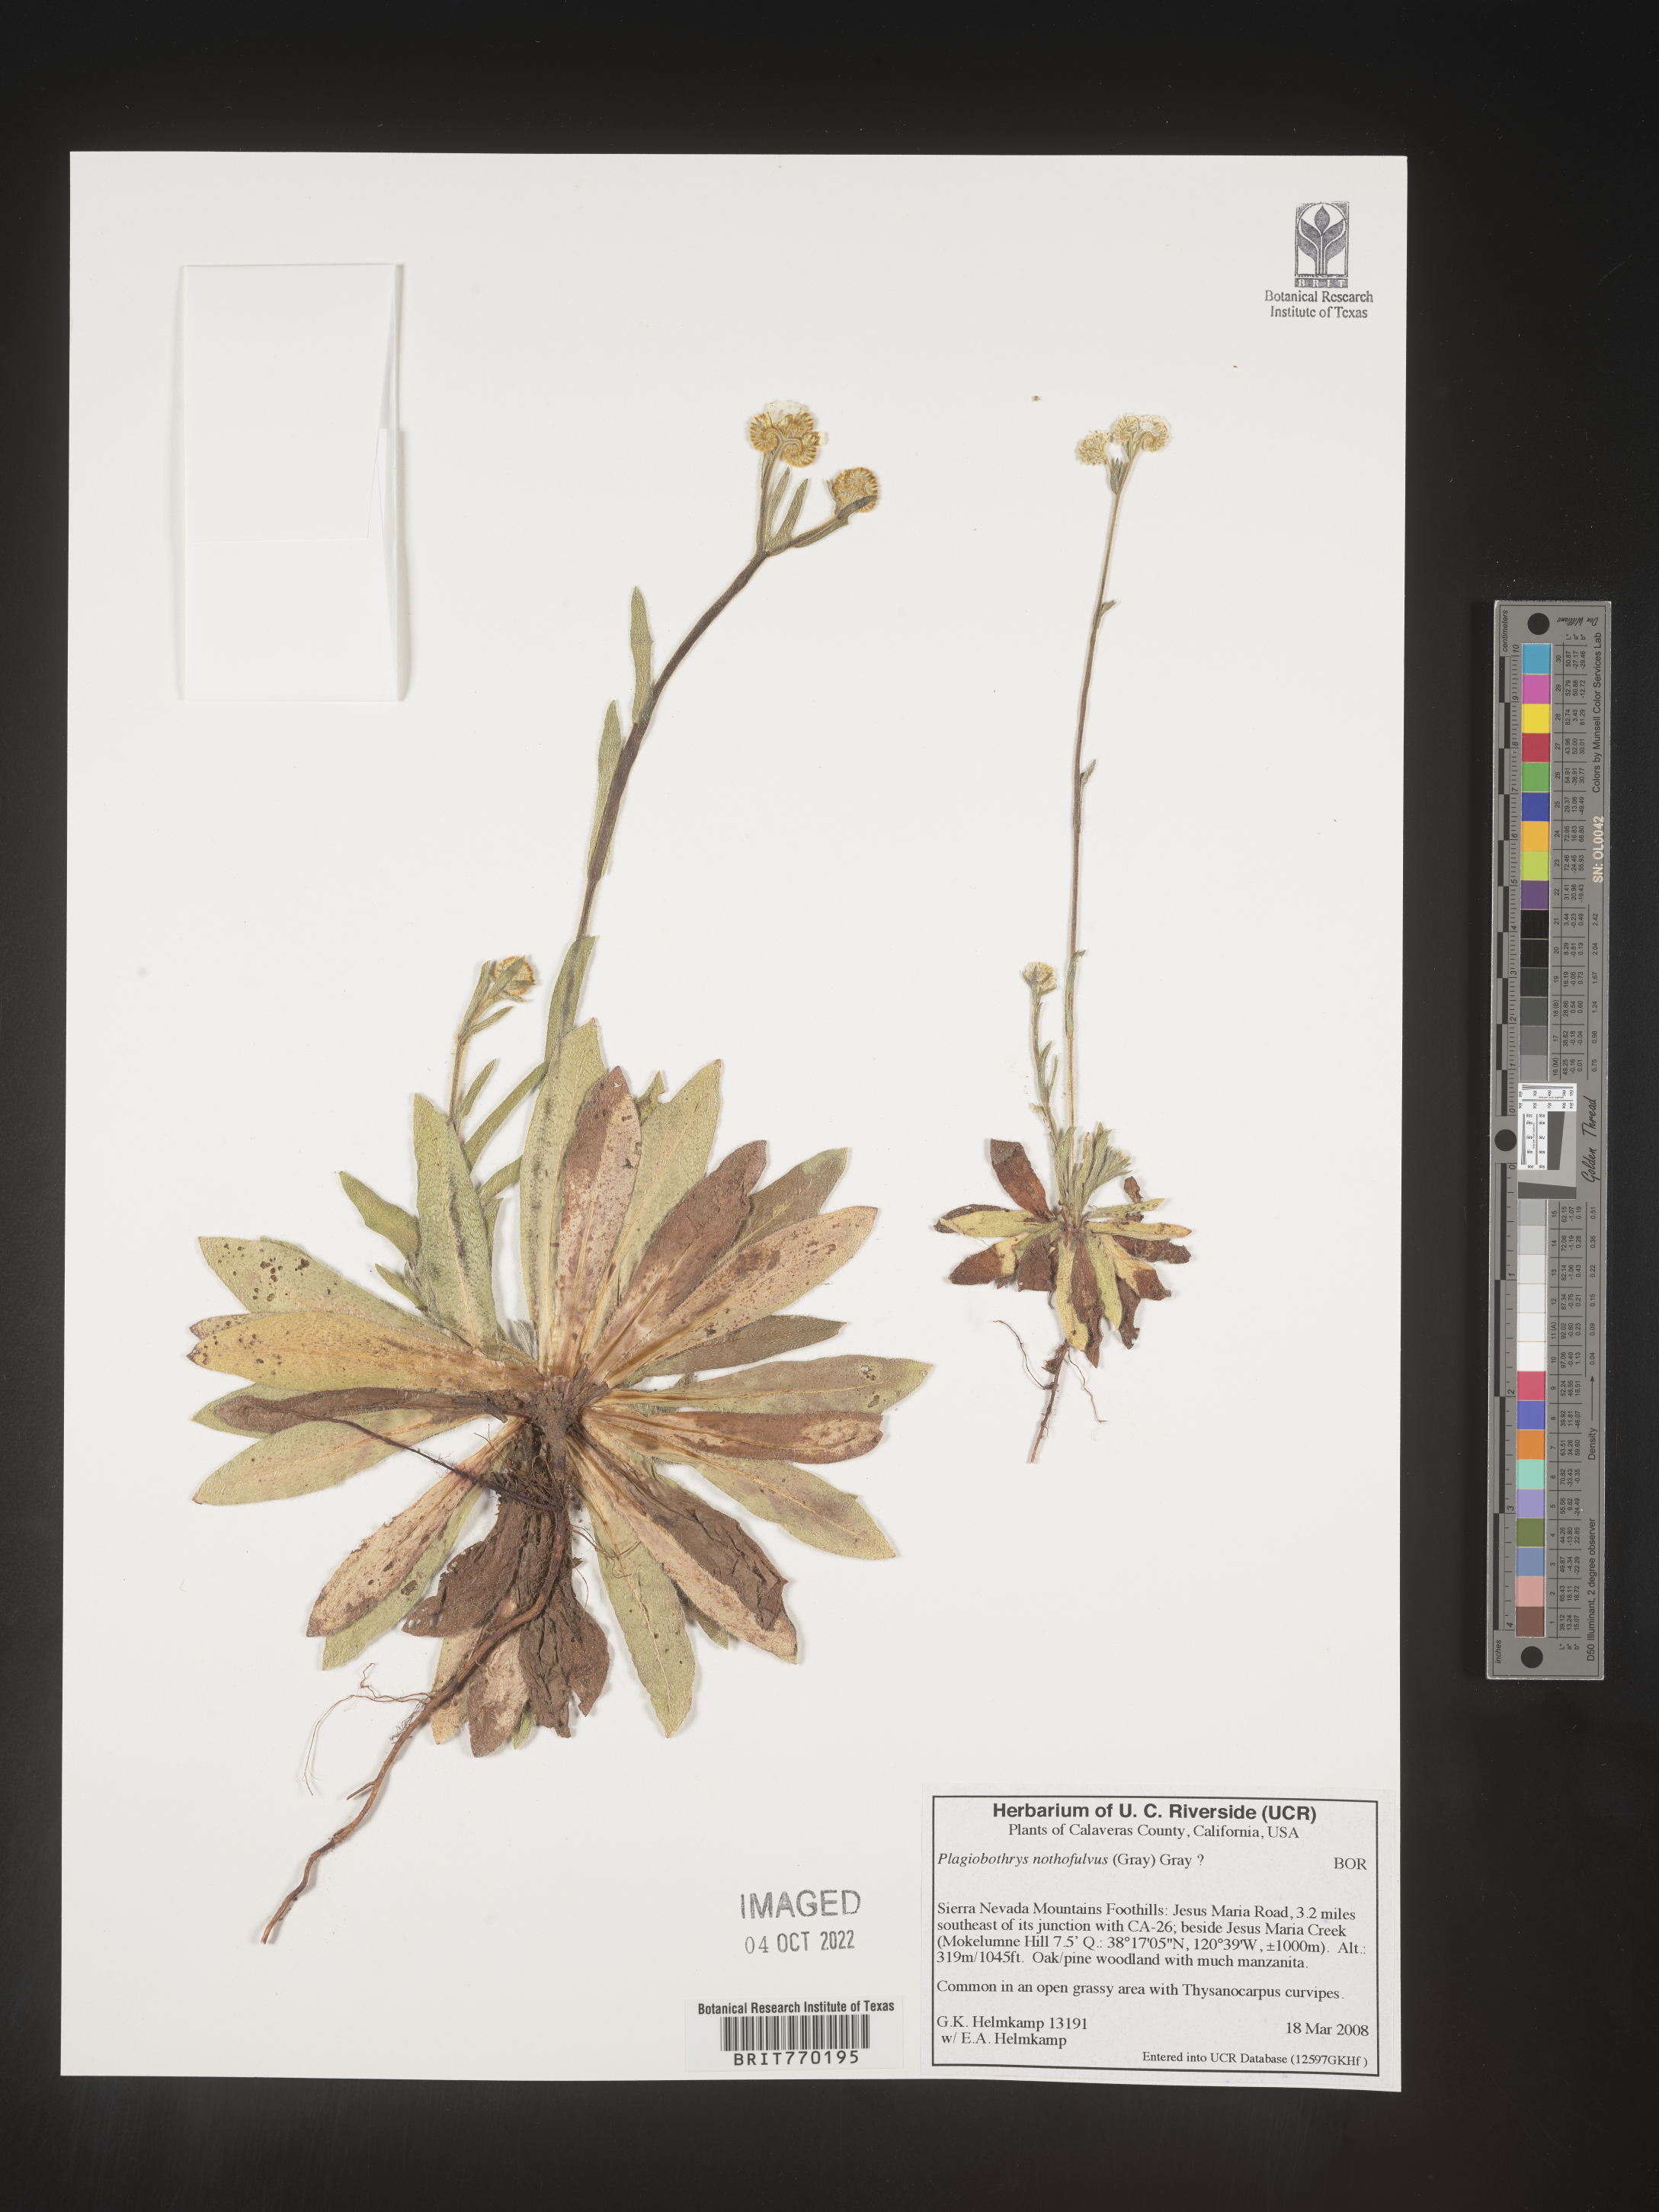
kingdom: Plantae
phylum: Tracheophyta
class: Magnoliopsida
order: Boraginales
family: Boraginaceae
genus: Plagiobothrys
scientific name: Plagiobothrys
